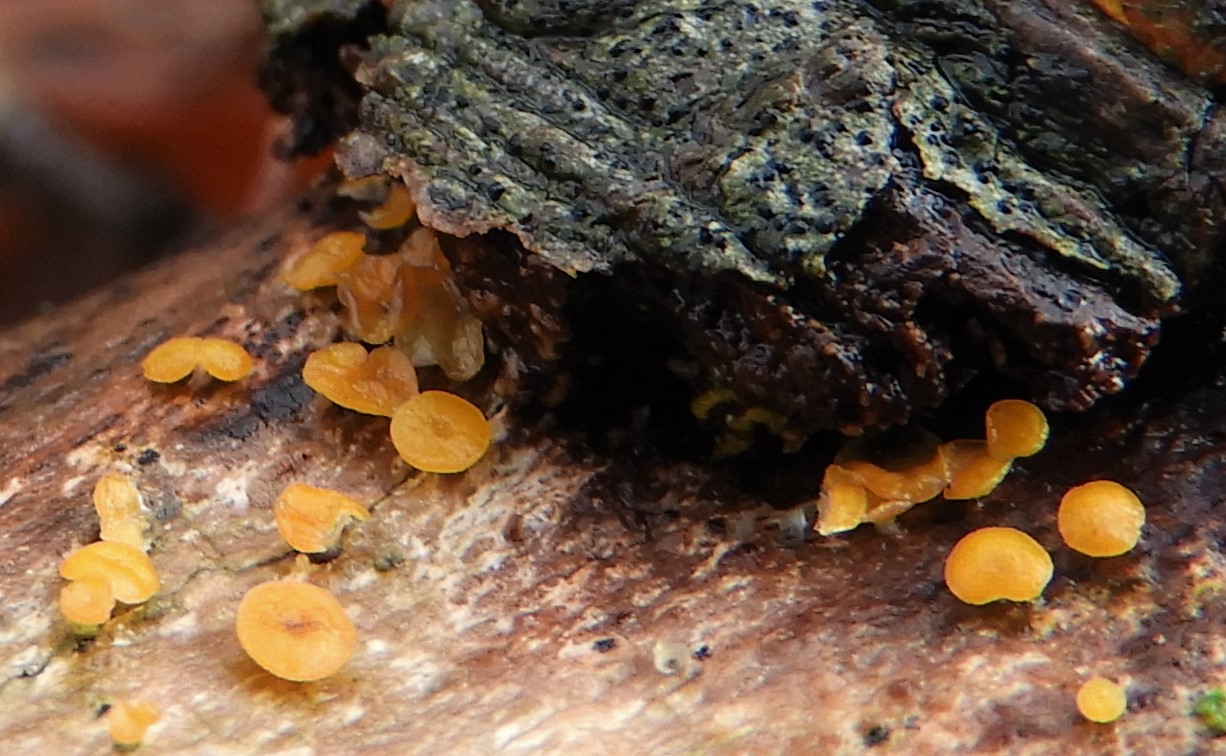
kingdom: Fungi
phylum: Ascomycota
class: Leotiomycetes
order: Helotiales
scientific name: Helotiales
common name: stilkskiveordenen
